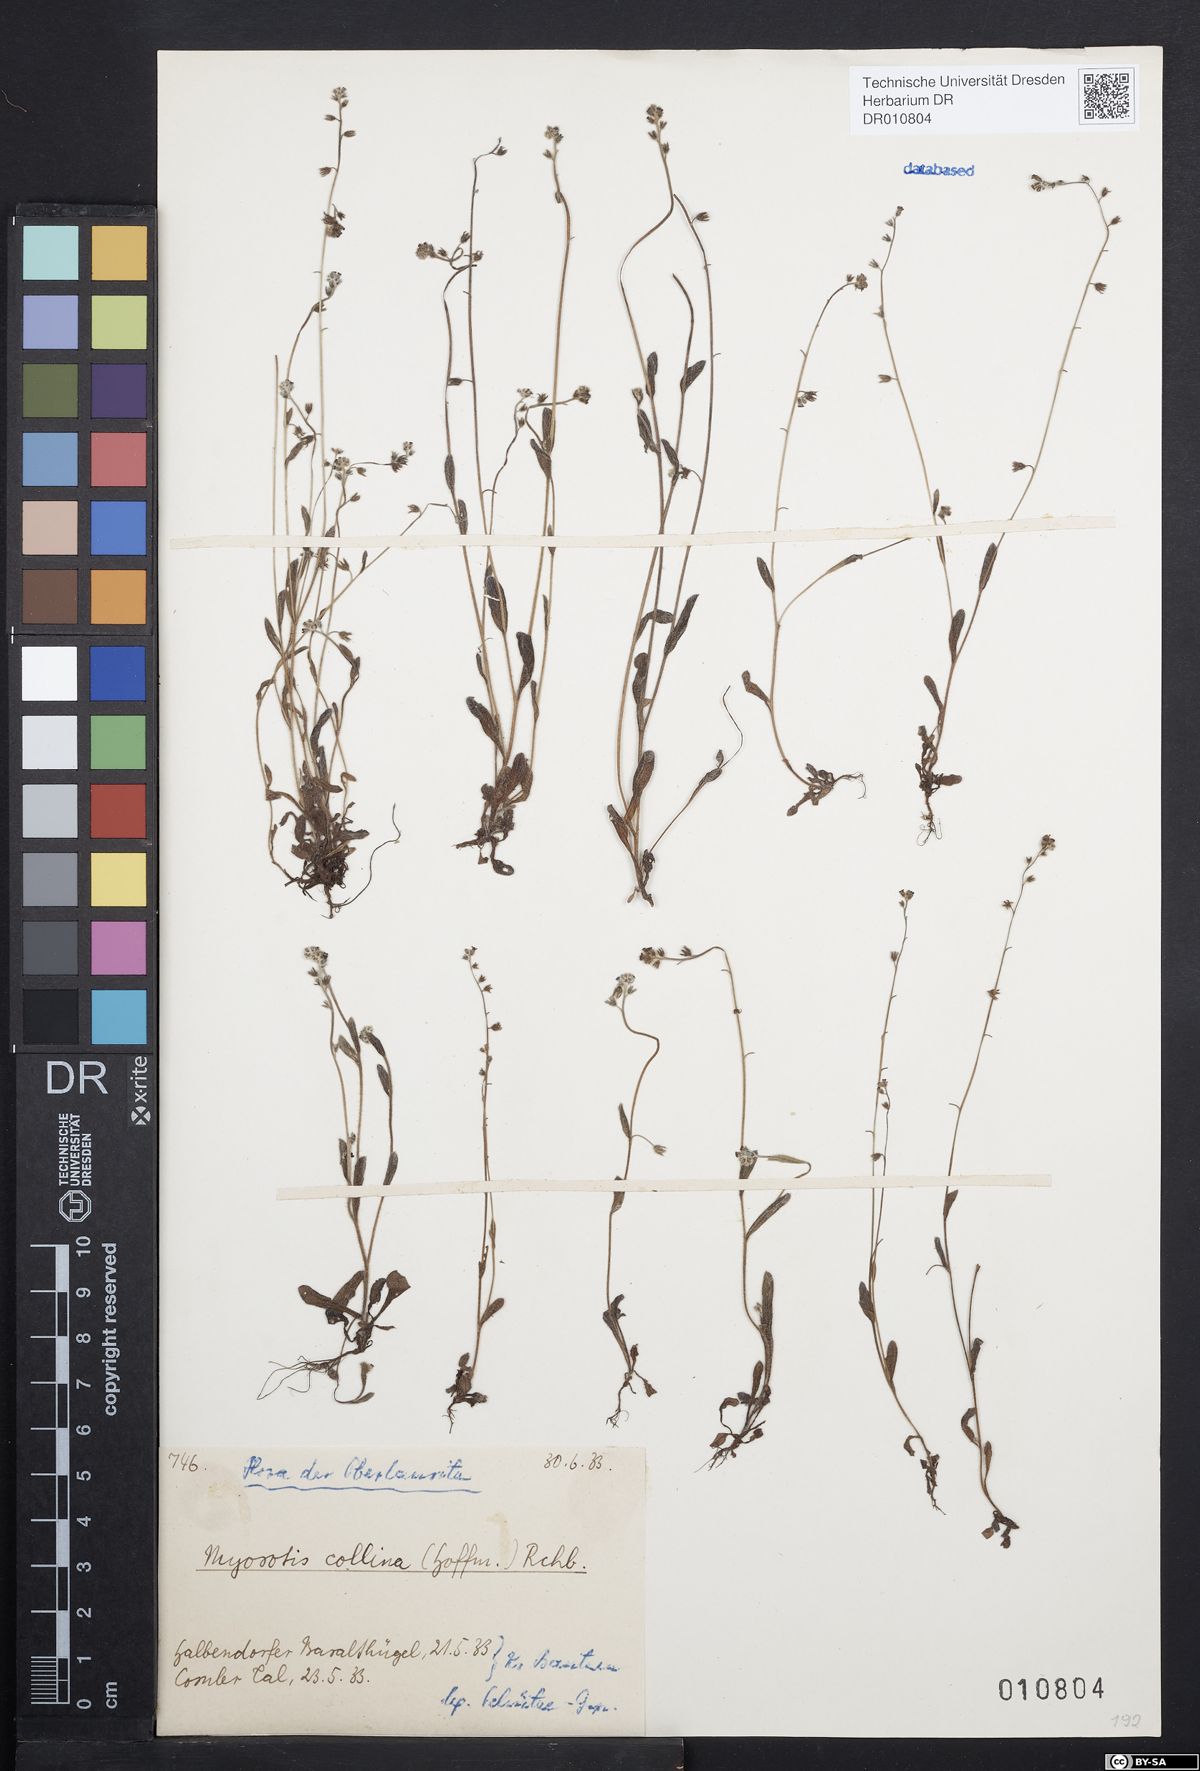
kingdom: Plantae
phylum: Tracheophyta
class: Magnoliopsida
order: Boraginales
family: Boraginaceae
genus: Myosotis
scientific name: Myosotis ramosissima
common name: Early forget-me-not
